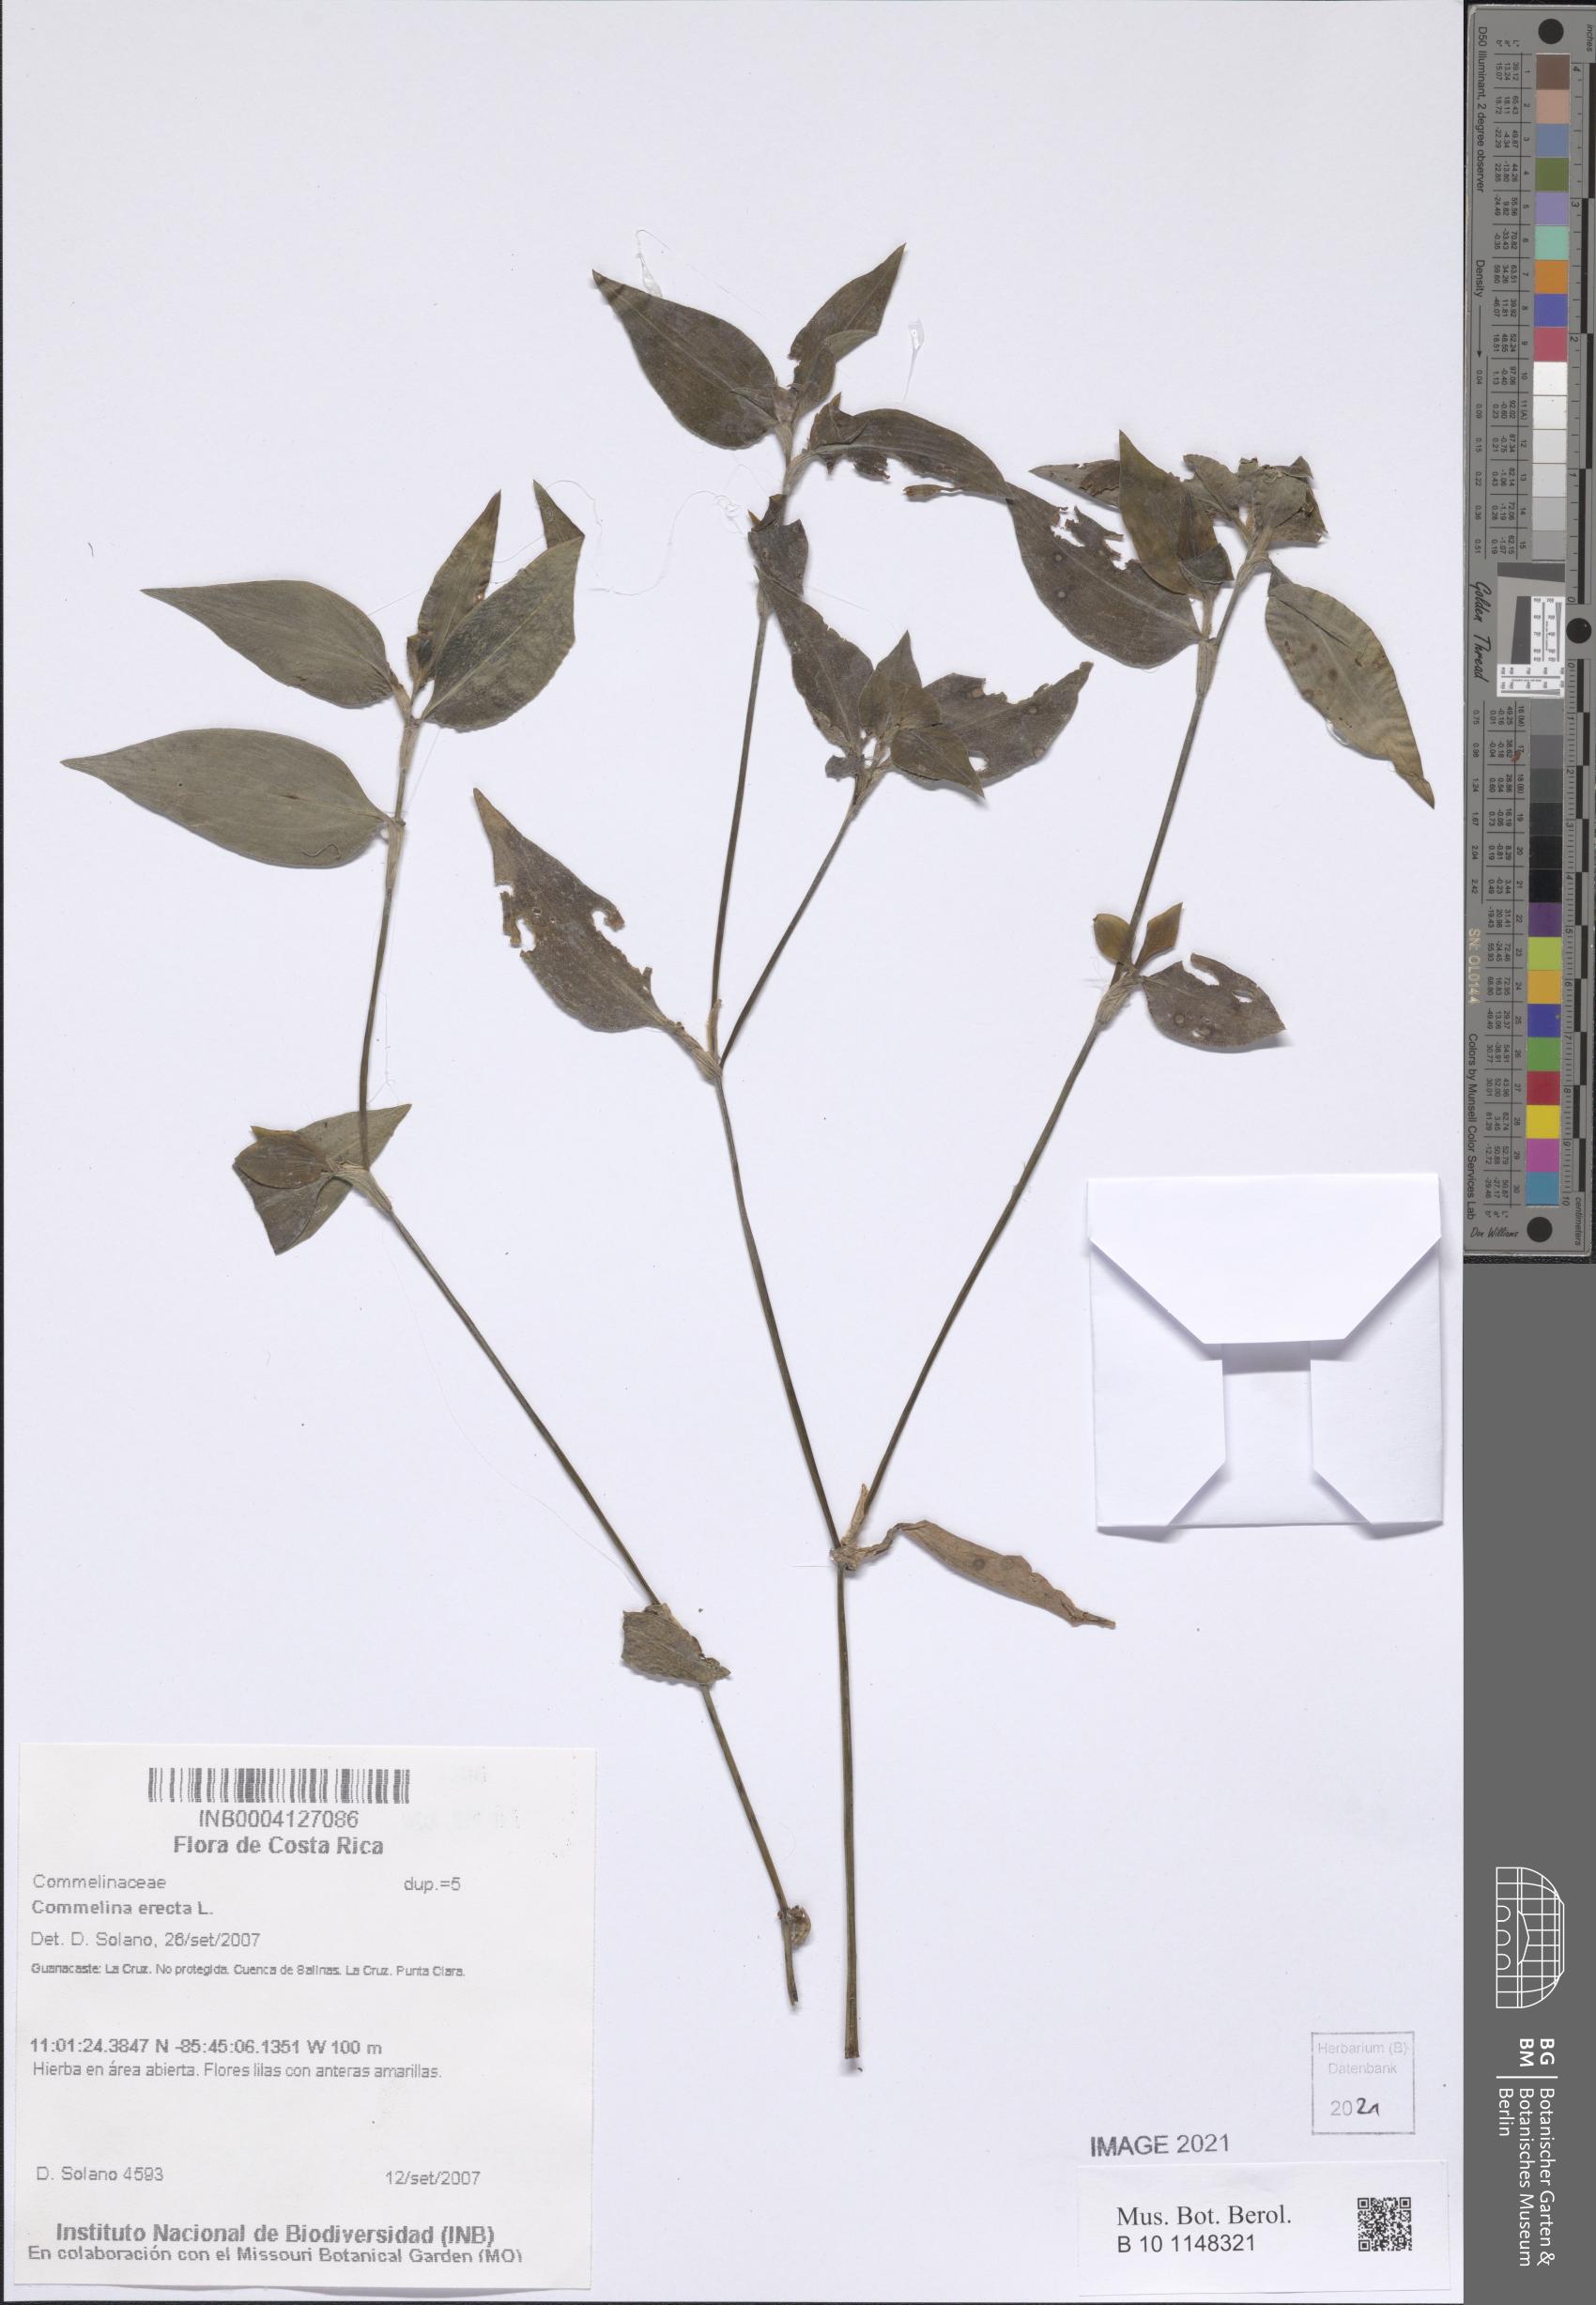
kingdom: Plantae
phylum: Tracheophyta
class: Liliopsida
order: Commelinales
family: Commelinaceae
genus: Commelina
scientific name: Commelina erecta
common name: Blousel blommetjie
